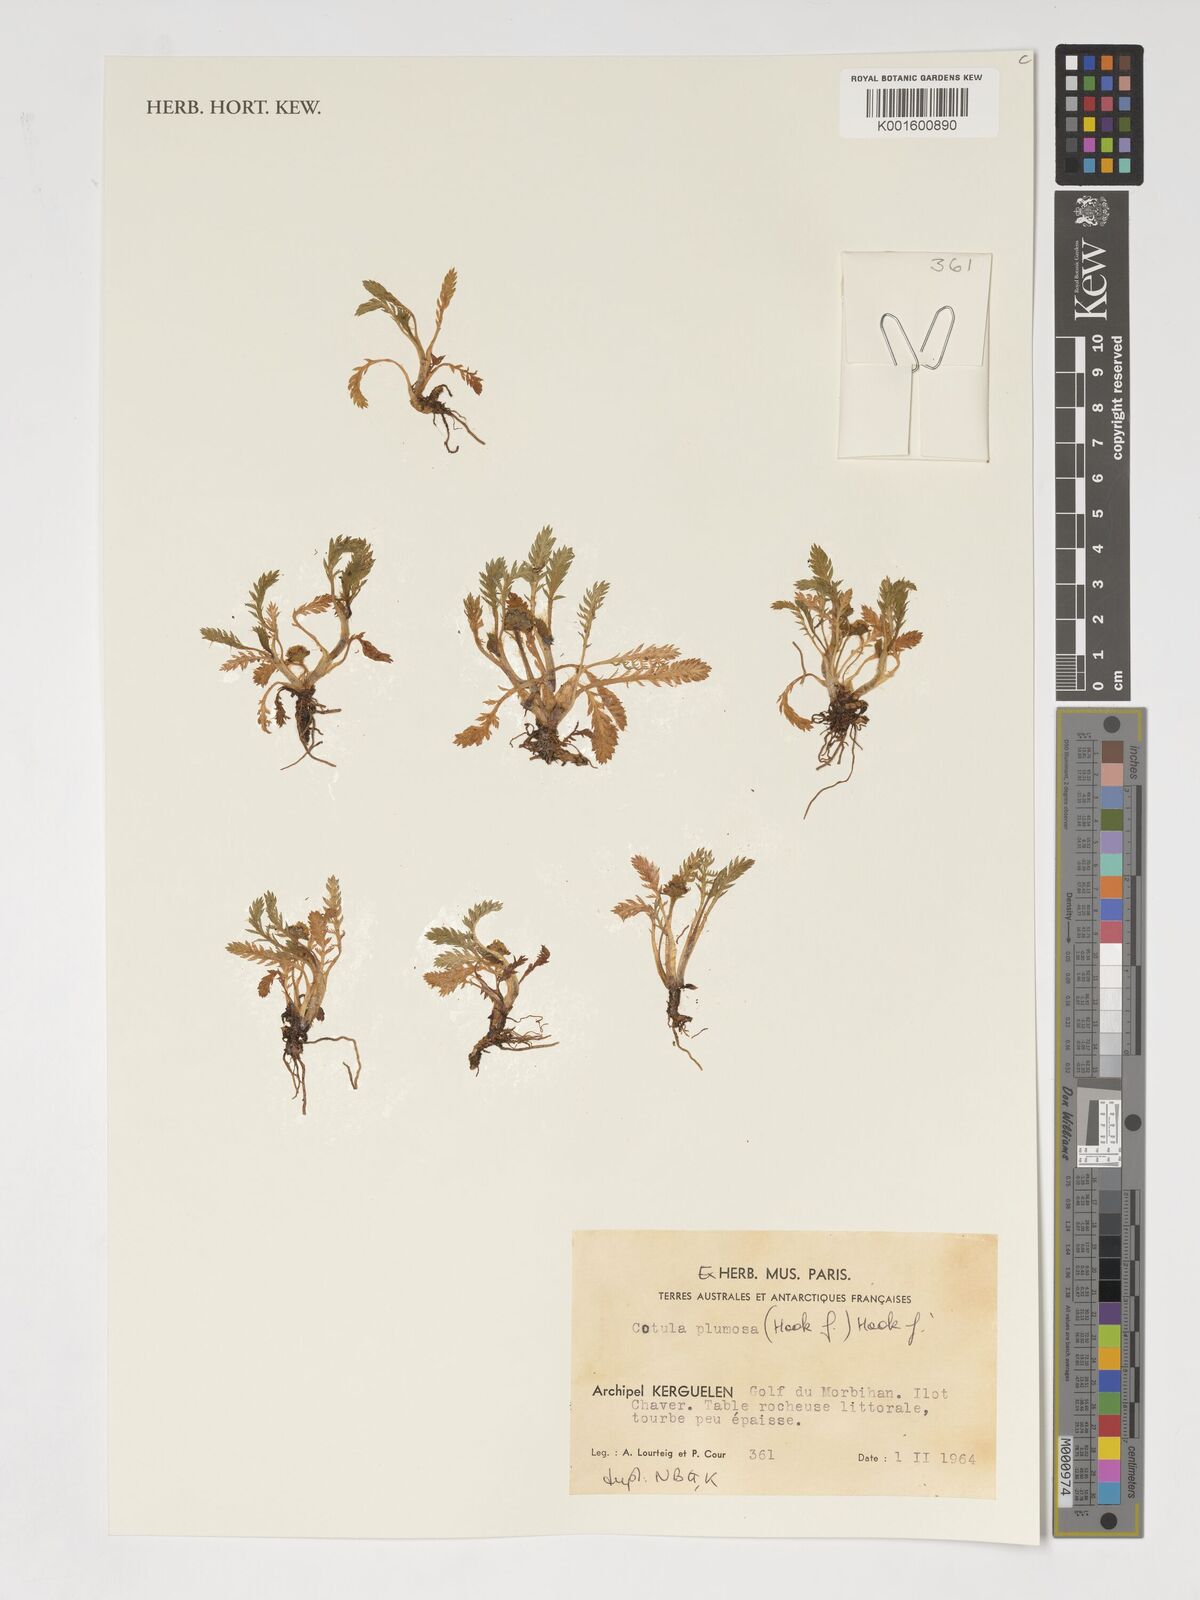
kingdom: Plantae
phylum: Tracheophyta
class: Magnoliopsida
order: Asterales
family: Asteraceae
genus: Leptinella
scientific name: Leptinella plumosa
